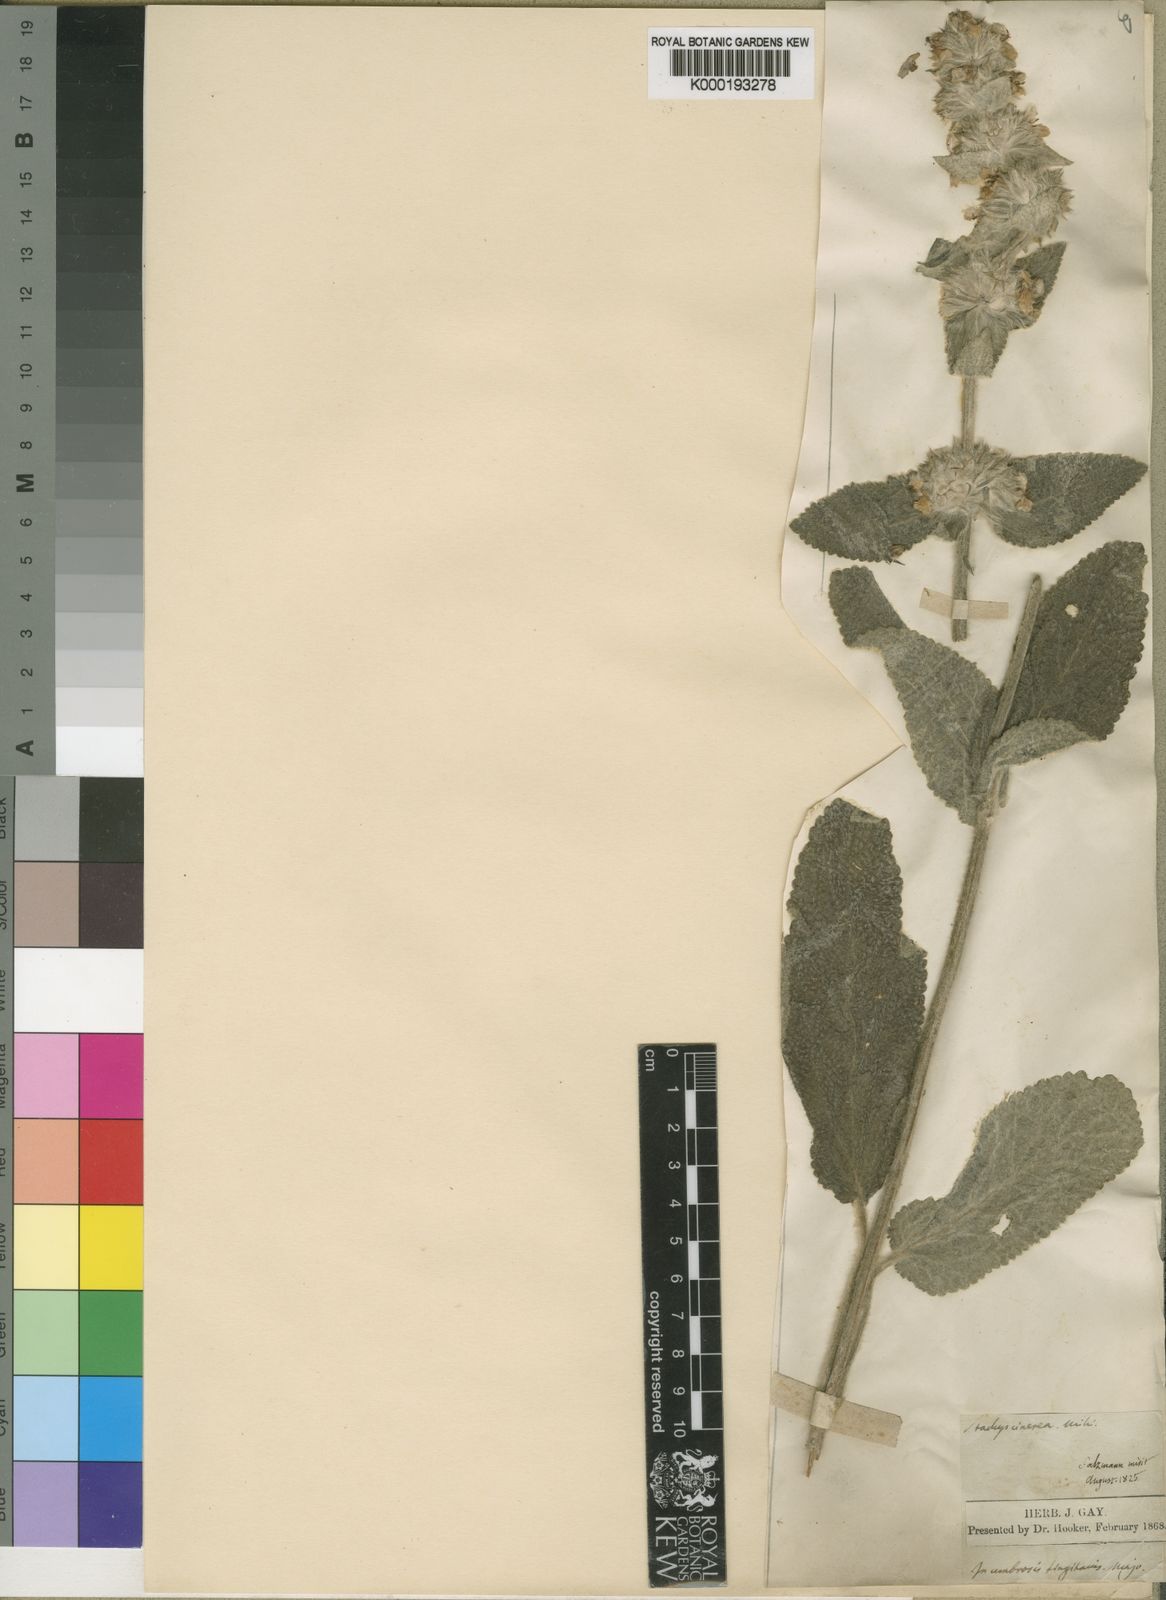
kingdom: Plantae
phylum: Tracheophyta
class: Magnoliopsida
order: Lamiales
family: Lamiaceae
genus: Stachys
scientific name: Stachys germanica
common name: Downy woundwort
